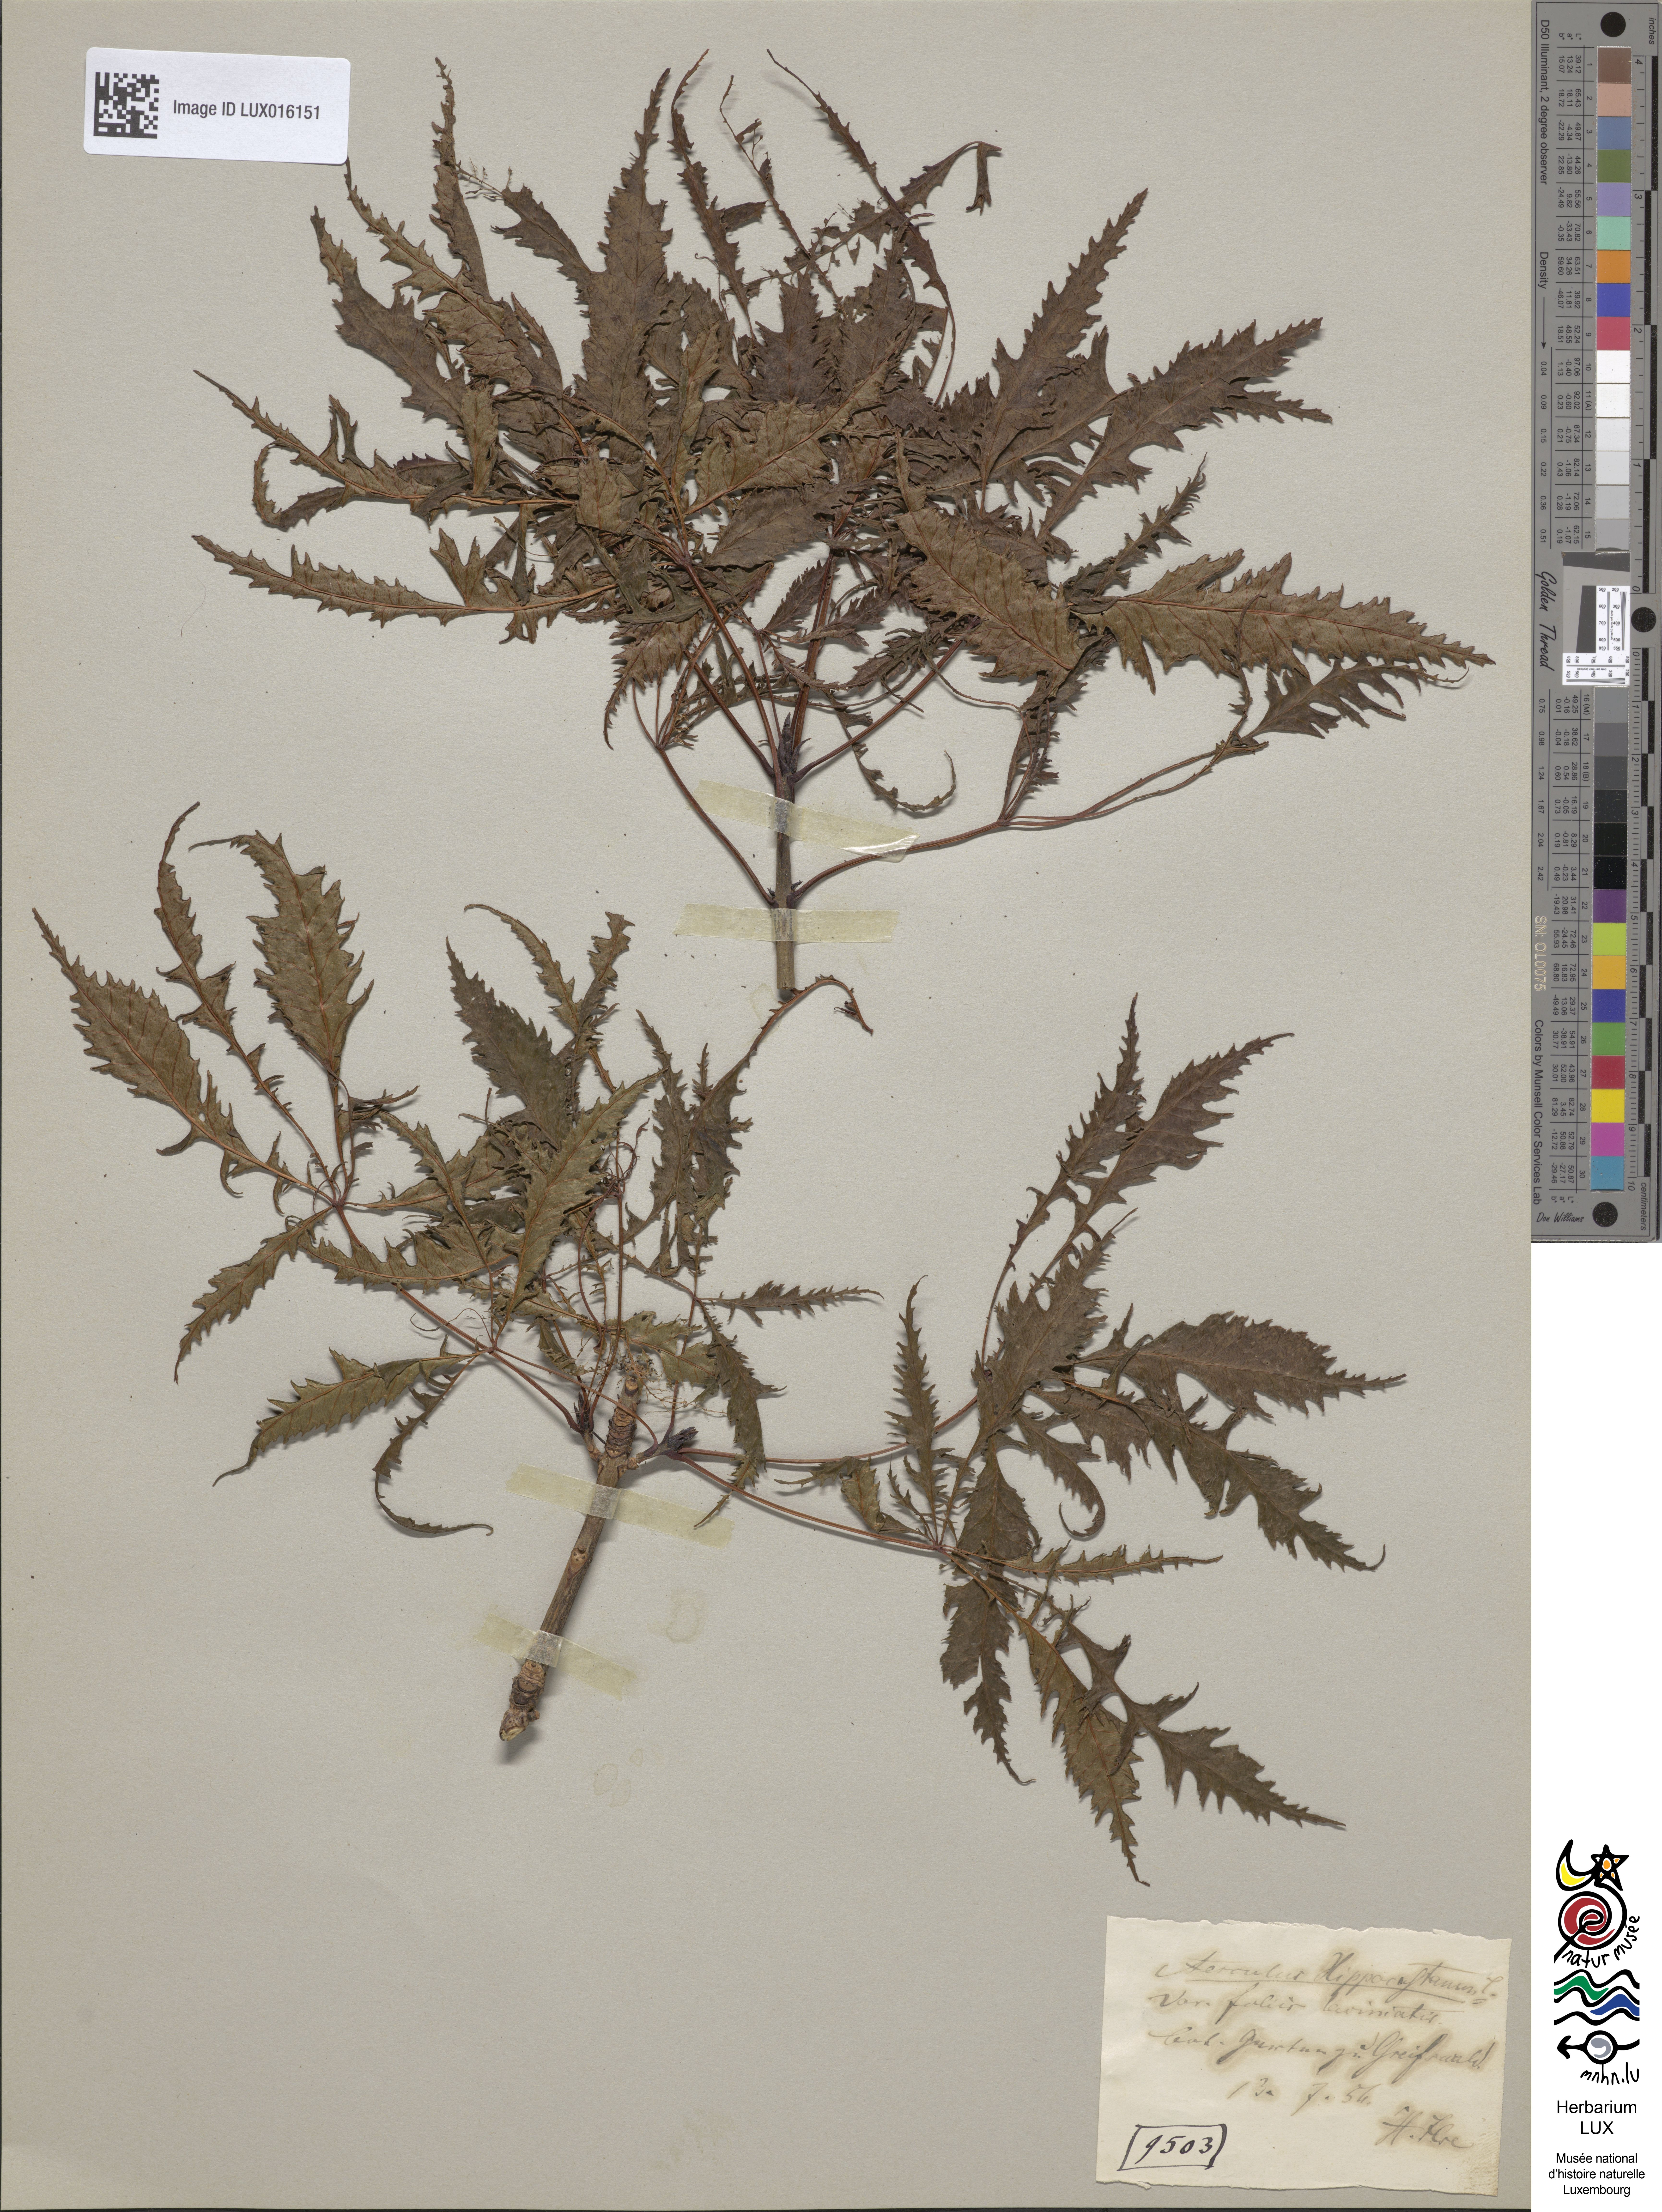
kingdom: Plantae
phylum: Tracheophyta
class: Magnoliopsida
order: Sapindales
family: Sapindaceae
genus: Aesculus
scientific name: Aesculus hippocastanum
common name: Horse-chestnut
